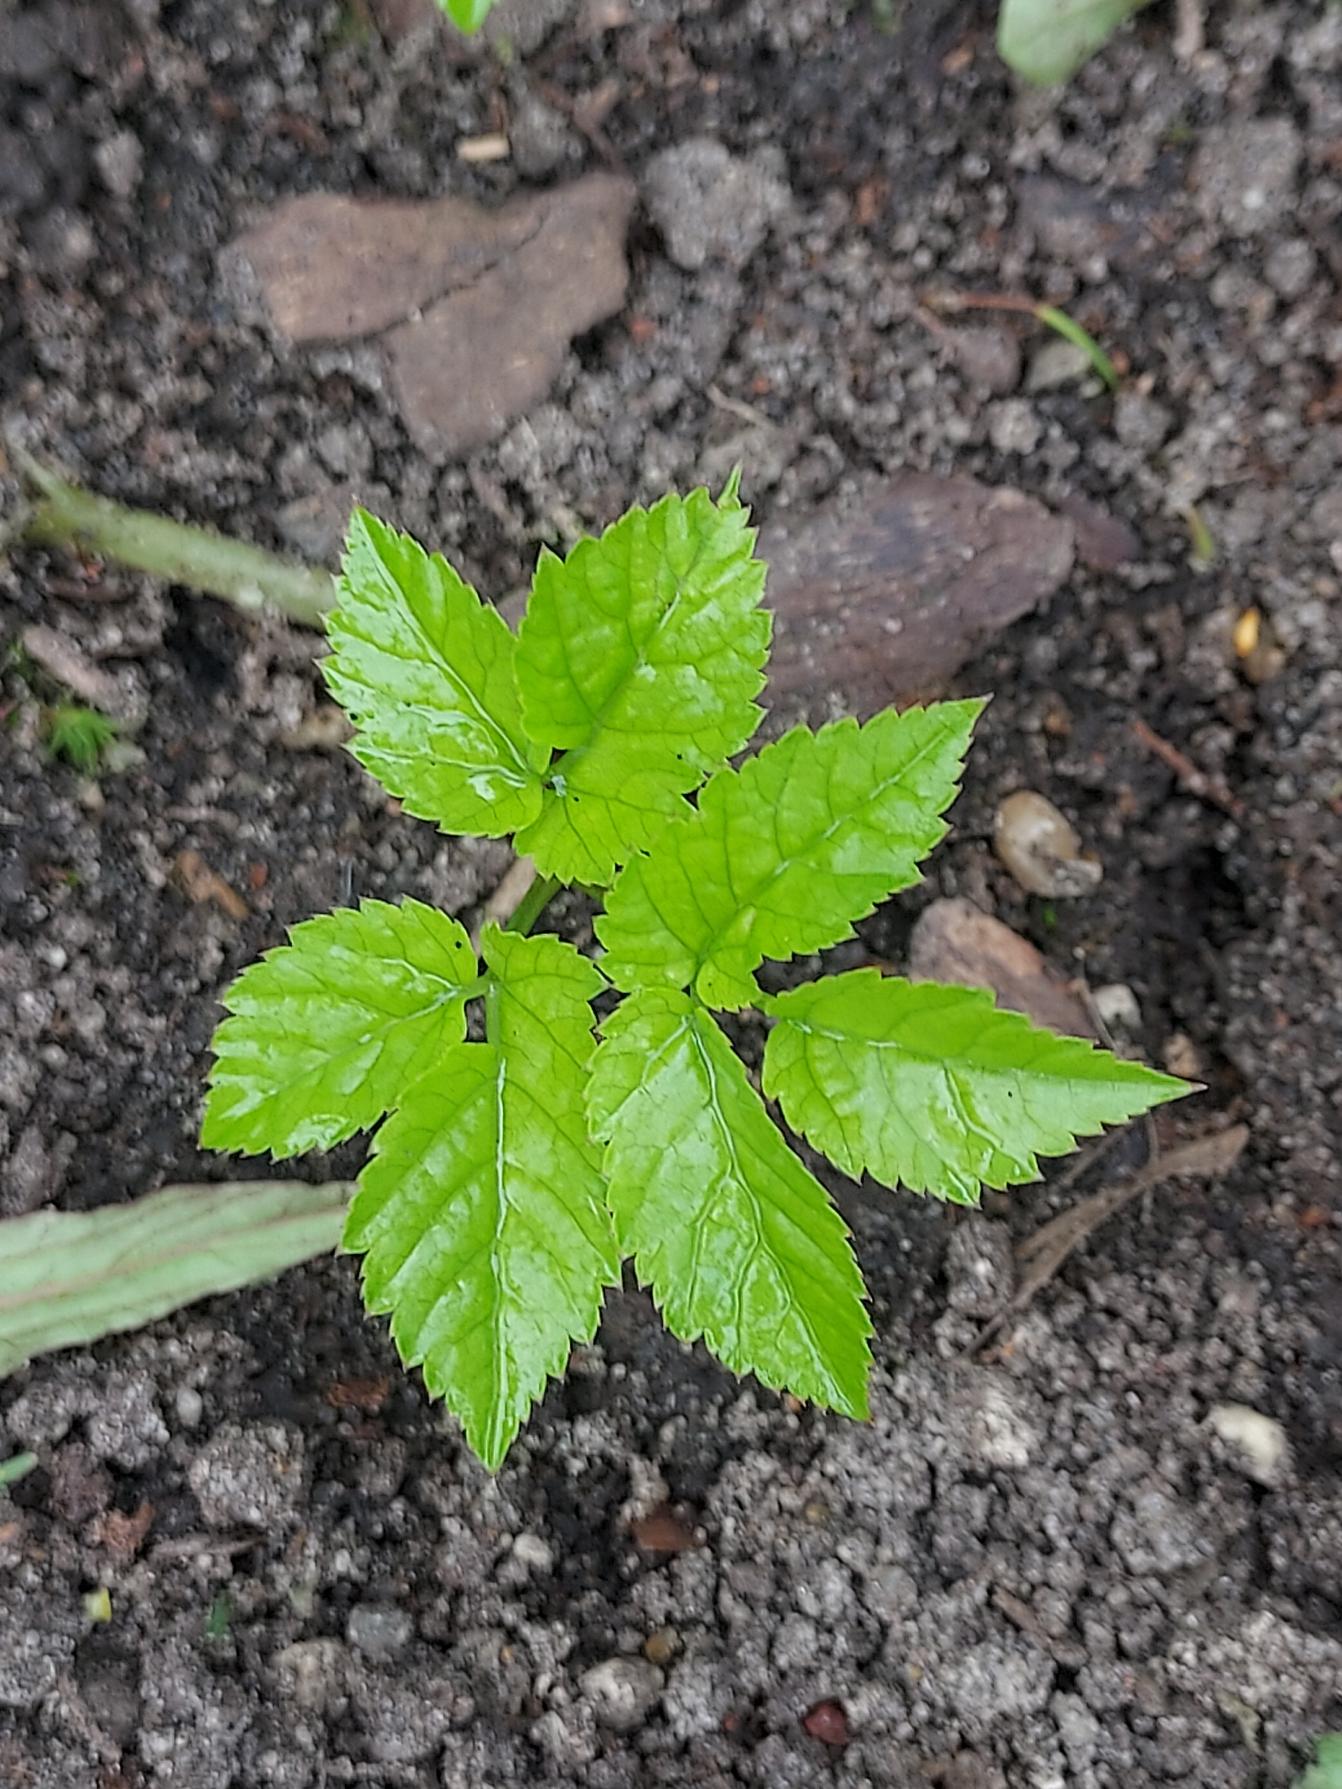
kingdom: Plantae
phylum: Tracheophyta
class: Magnoliopsida
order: Apiales
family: Apiaceae
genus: Aegopodium
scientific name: Aegopodium podagraria
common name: Skvalderkål
